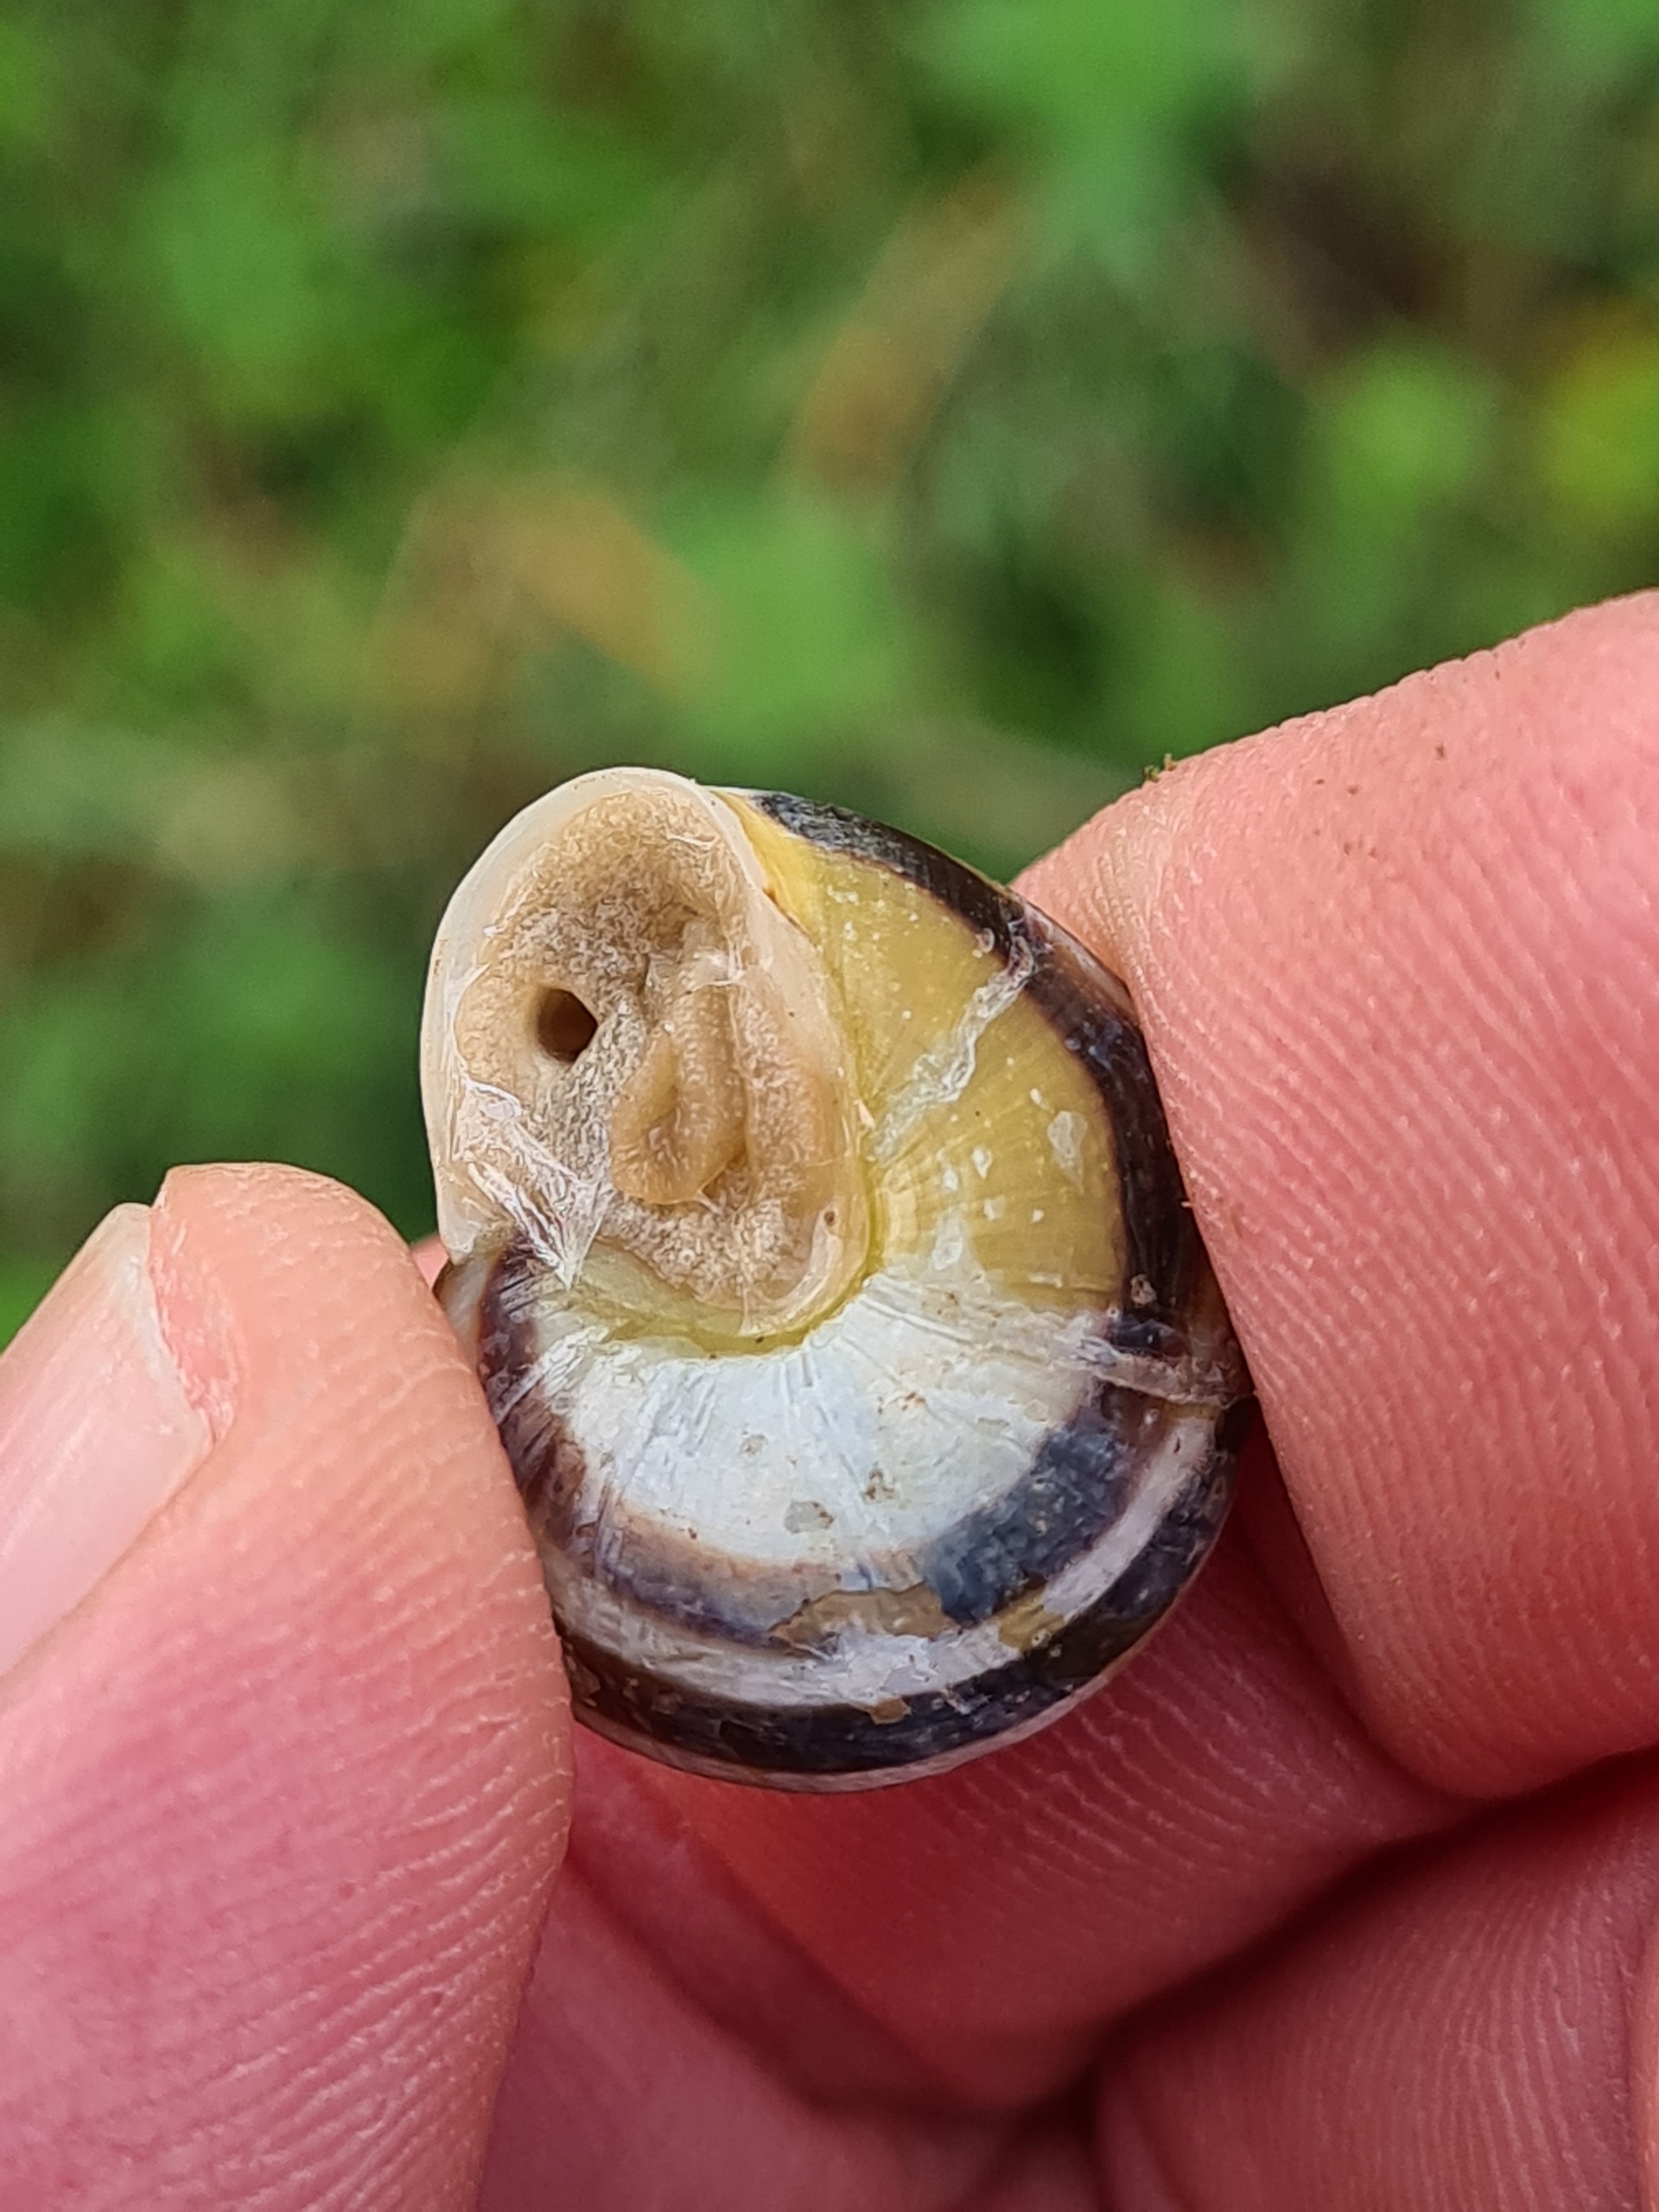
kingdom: Animalia
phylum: Mollusca
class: Gastropoda
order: Stylommatophora
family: Helicidae
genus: Cepaea
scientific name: Cepaea hortensis
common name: Havesnegl
